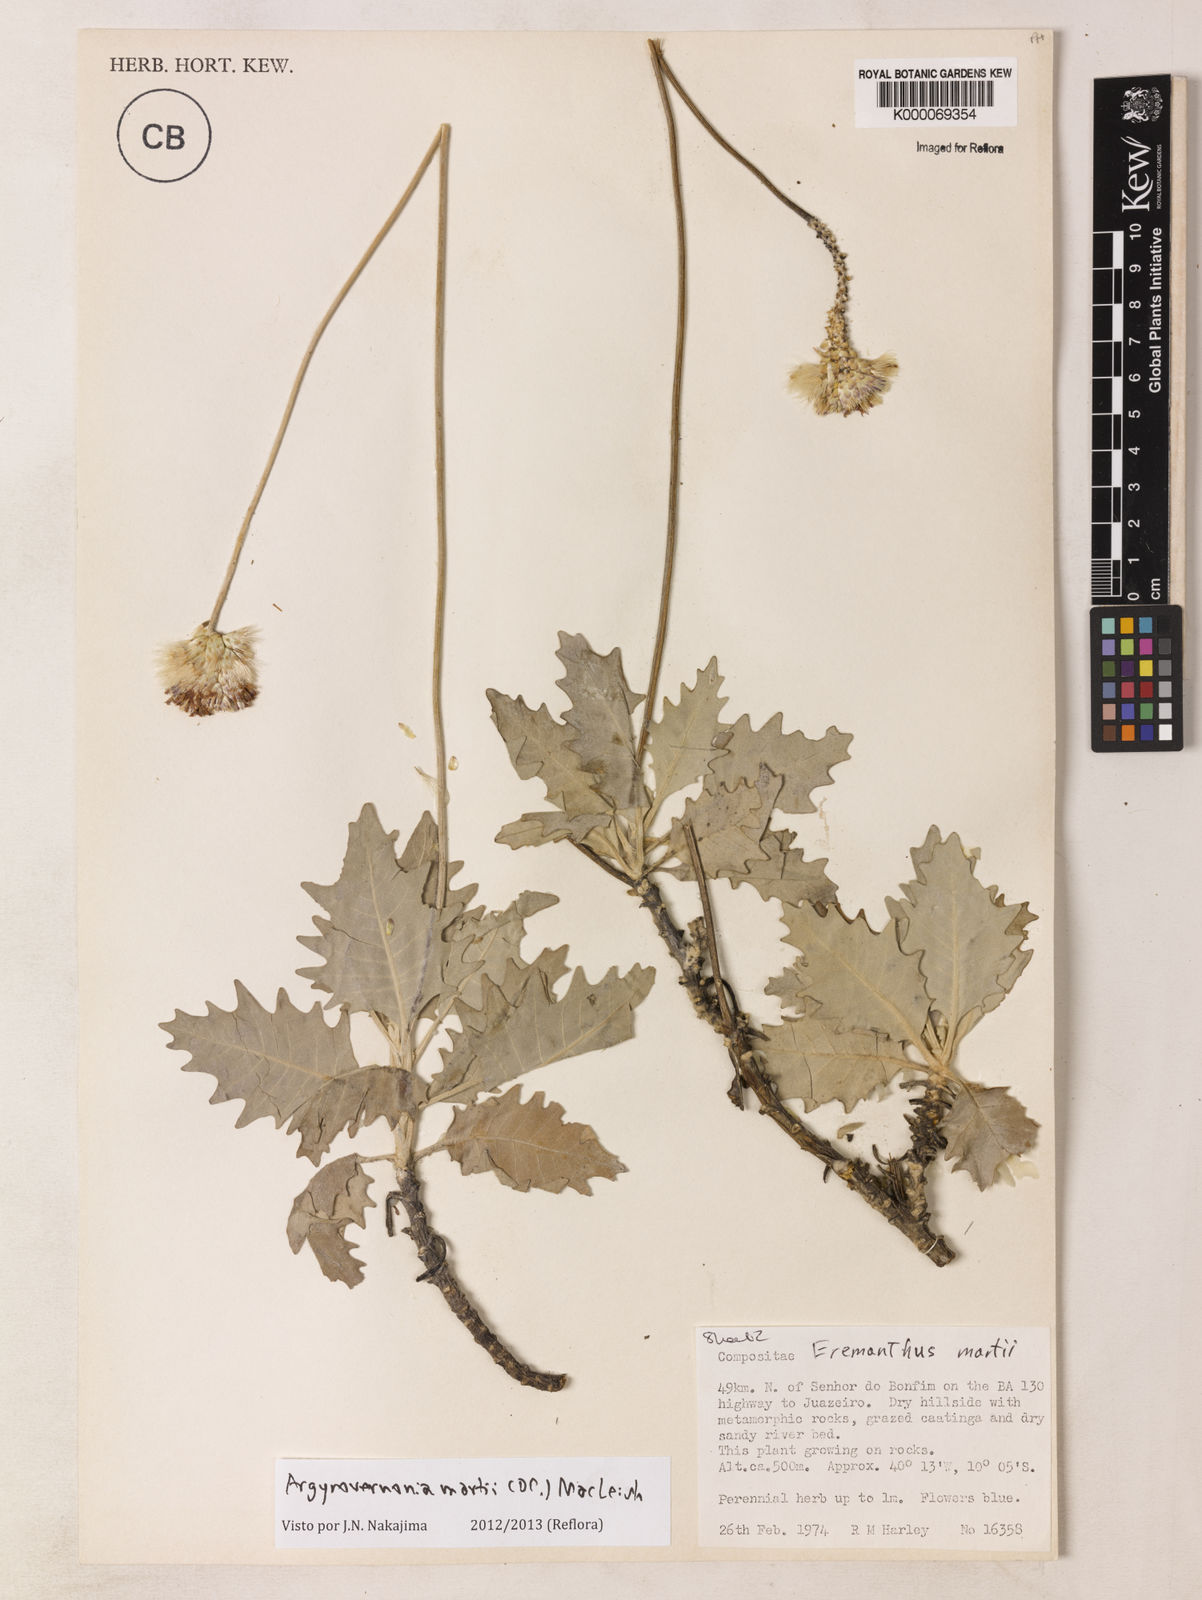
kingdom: Plantae
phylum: Tracheophyta
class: Magnoliopsida
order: Asterales
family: Asteraceae
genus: Chresta
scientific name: Chresta martii
